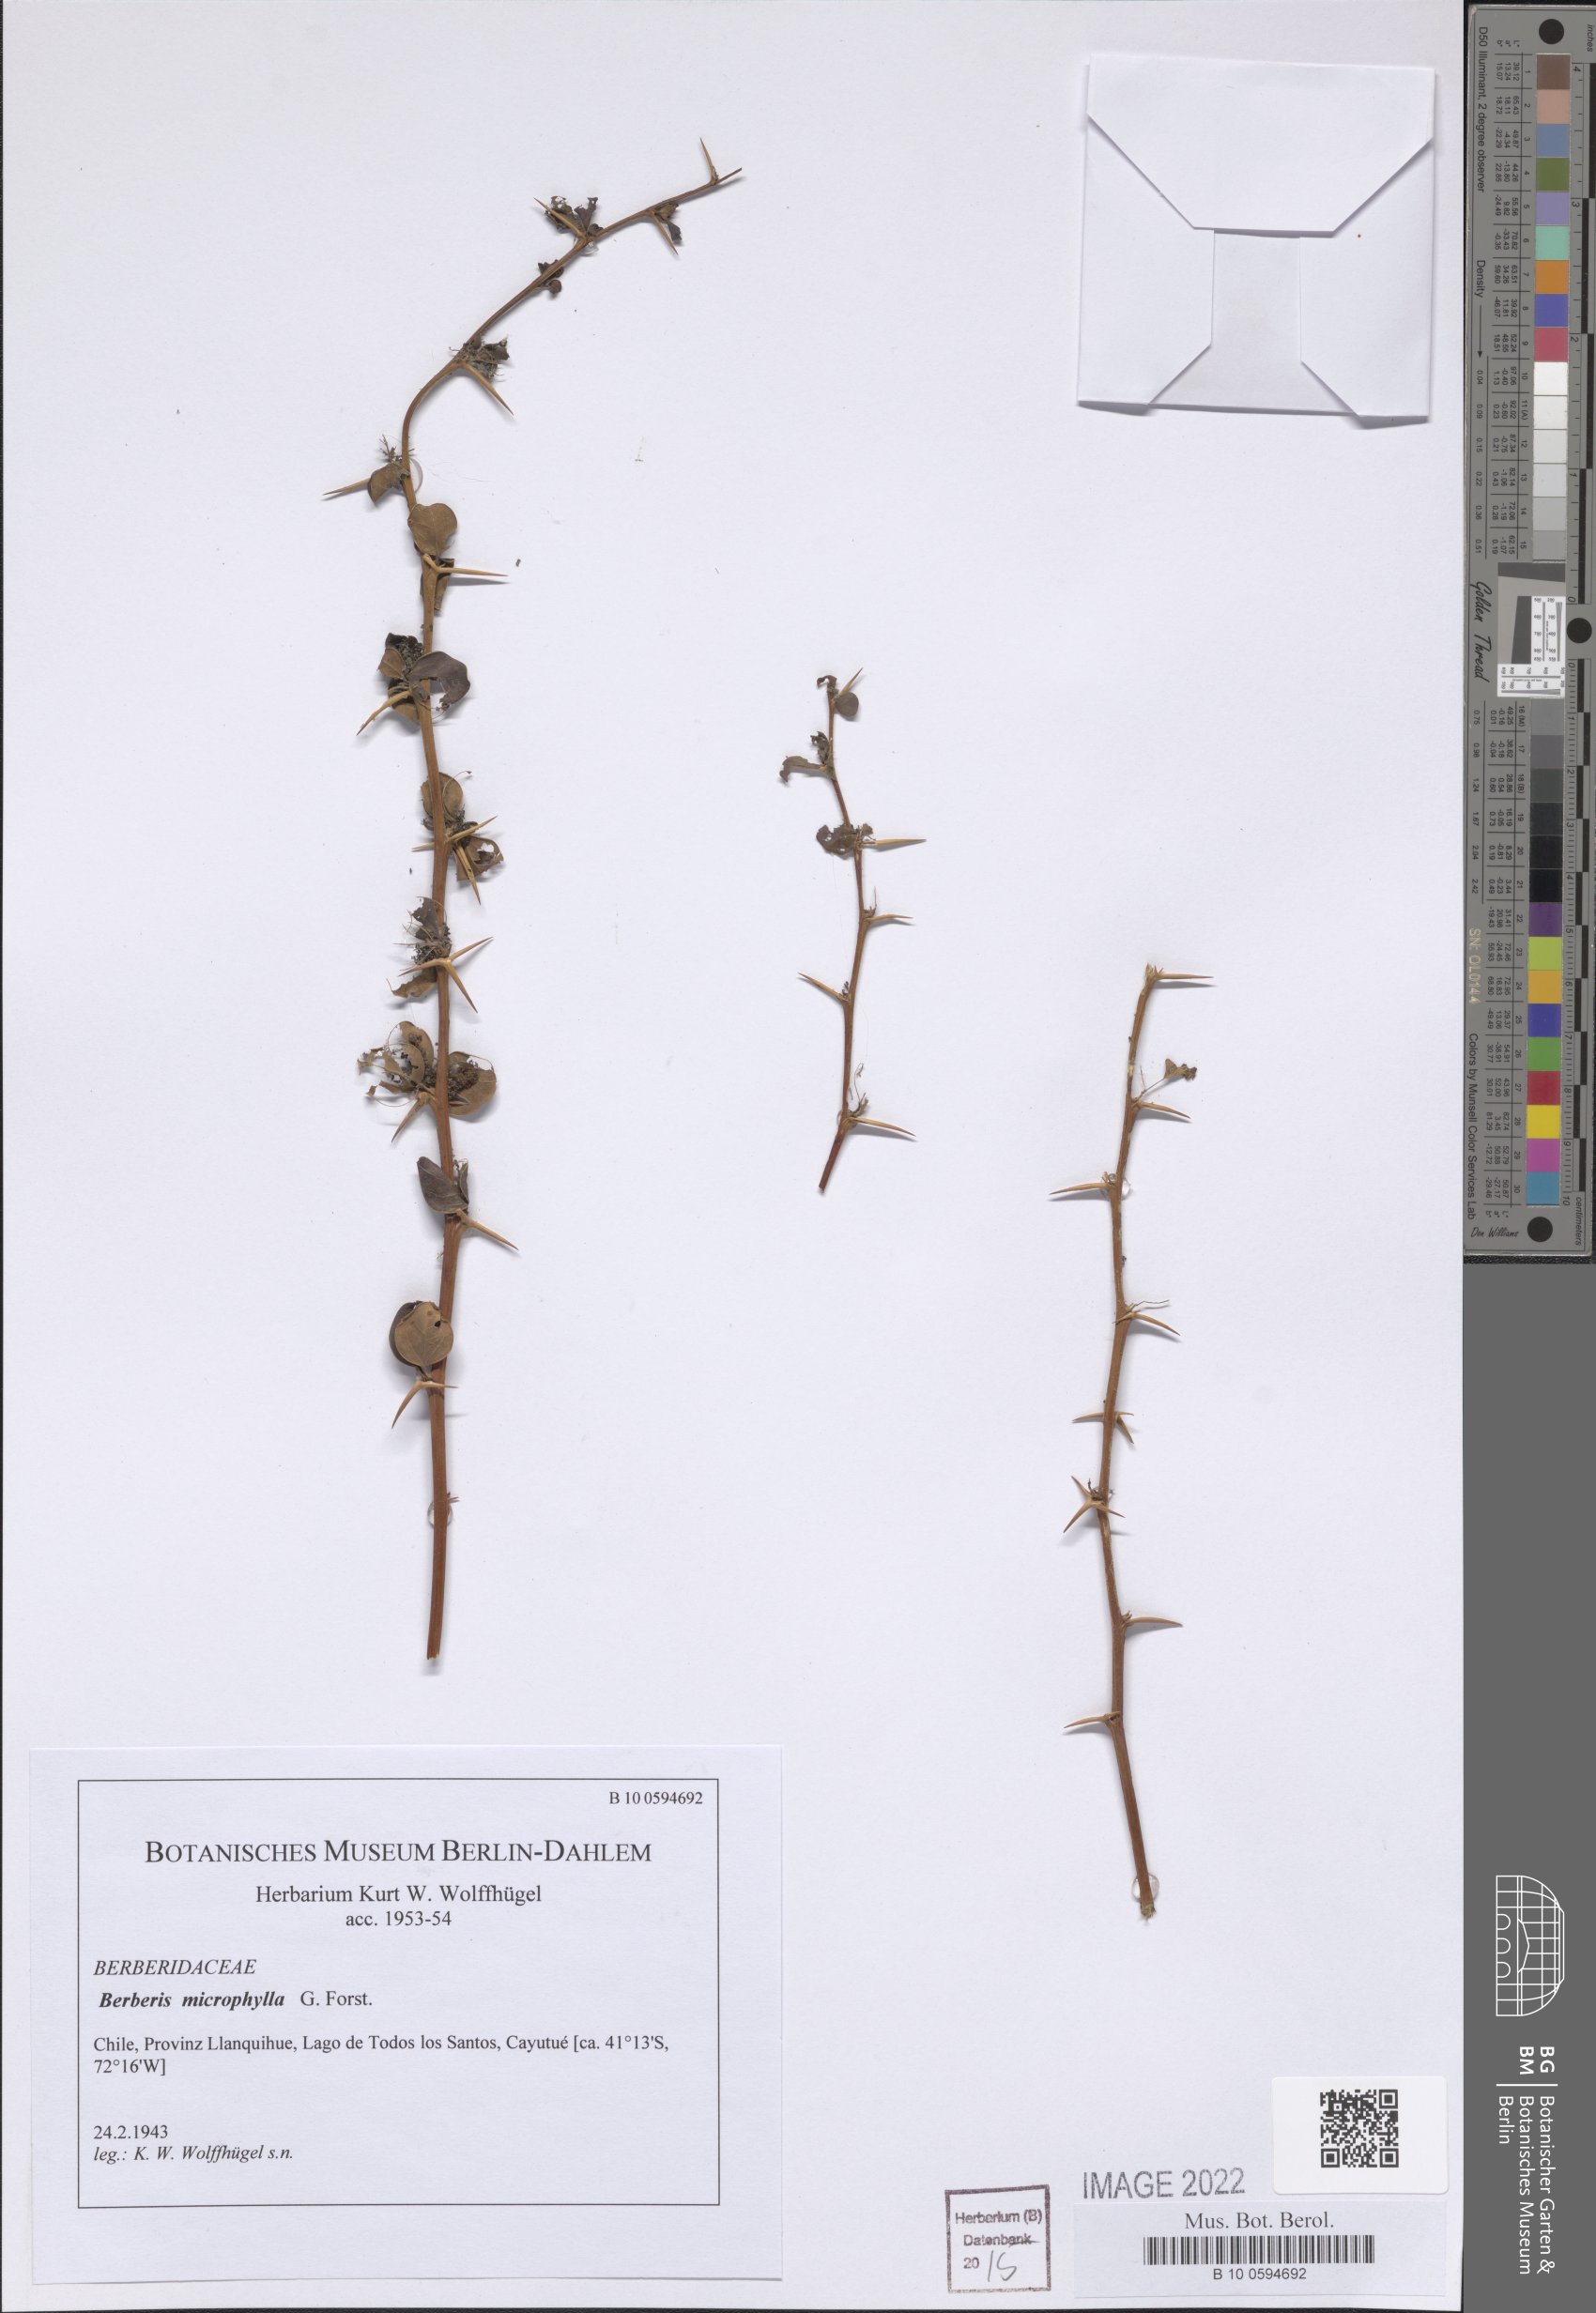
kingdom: Plantae
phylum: Tracheophyta
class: Magnoliopsida
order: Ranunculales
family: Berberidaceae
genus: Berberis
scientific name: Berberis microphylla
